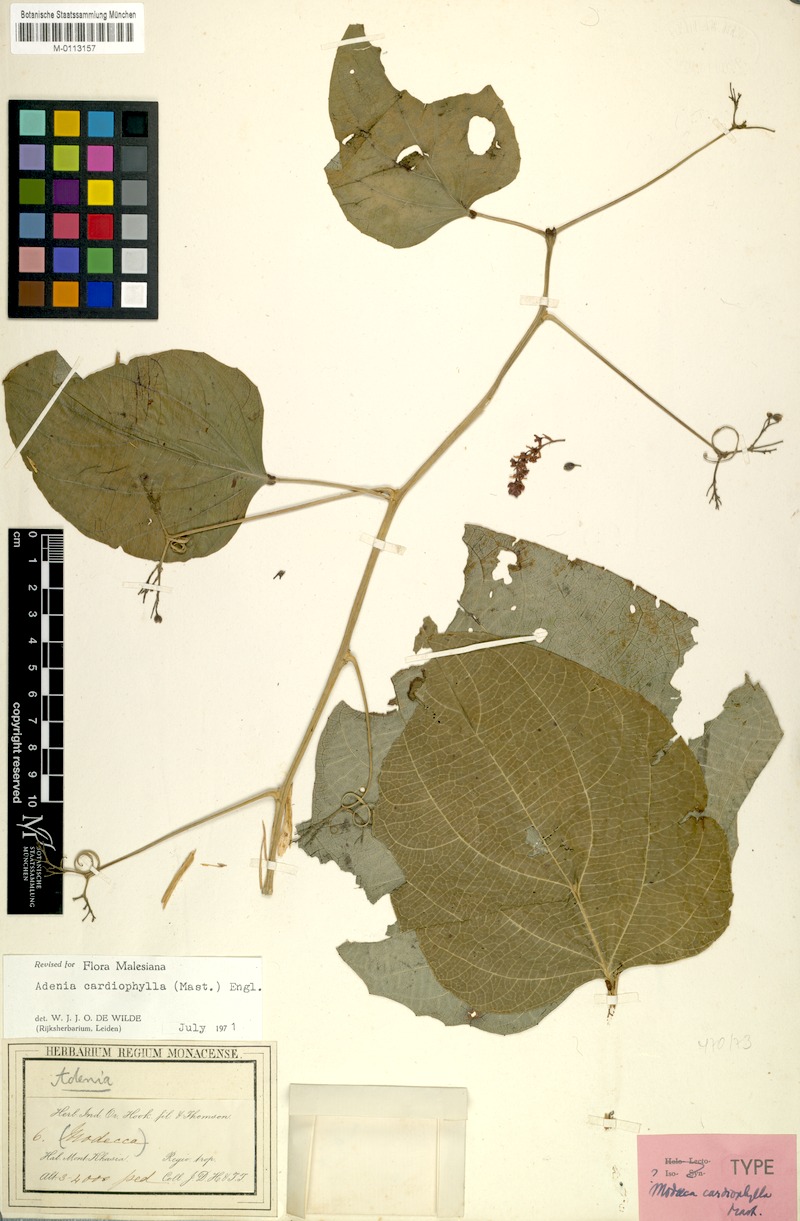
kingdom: Plantae
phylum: Tracheophyta
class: Magnoliopsida
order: Malpighiales
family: Passifloraceae
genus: Adenia
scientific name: Adenia cardiophylla
